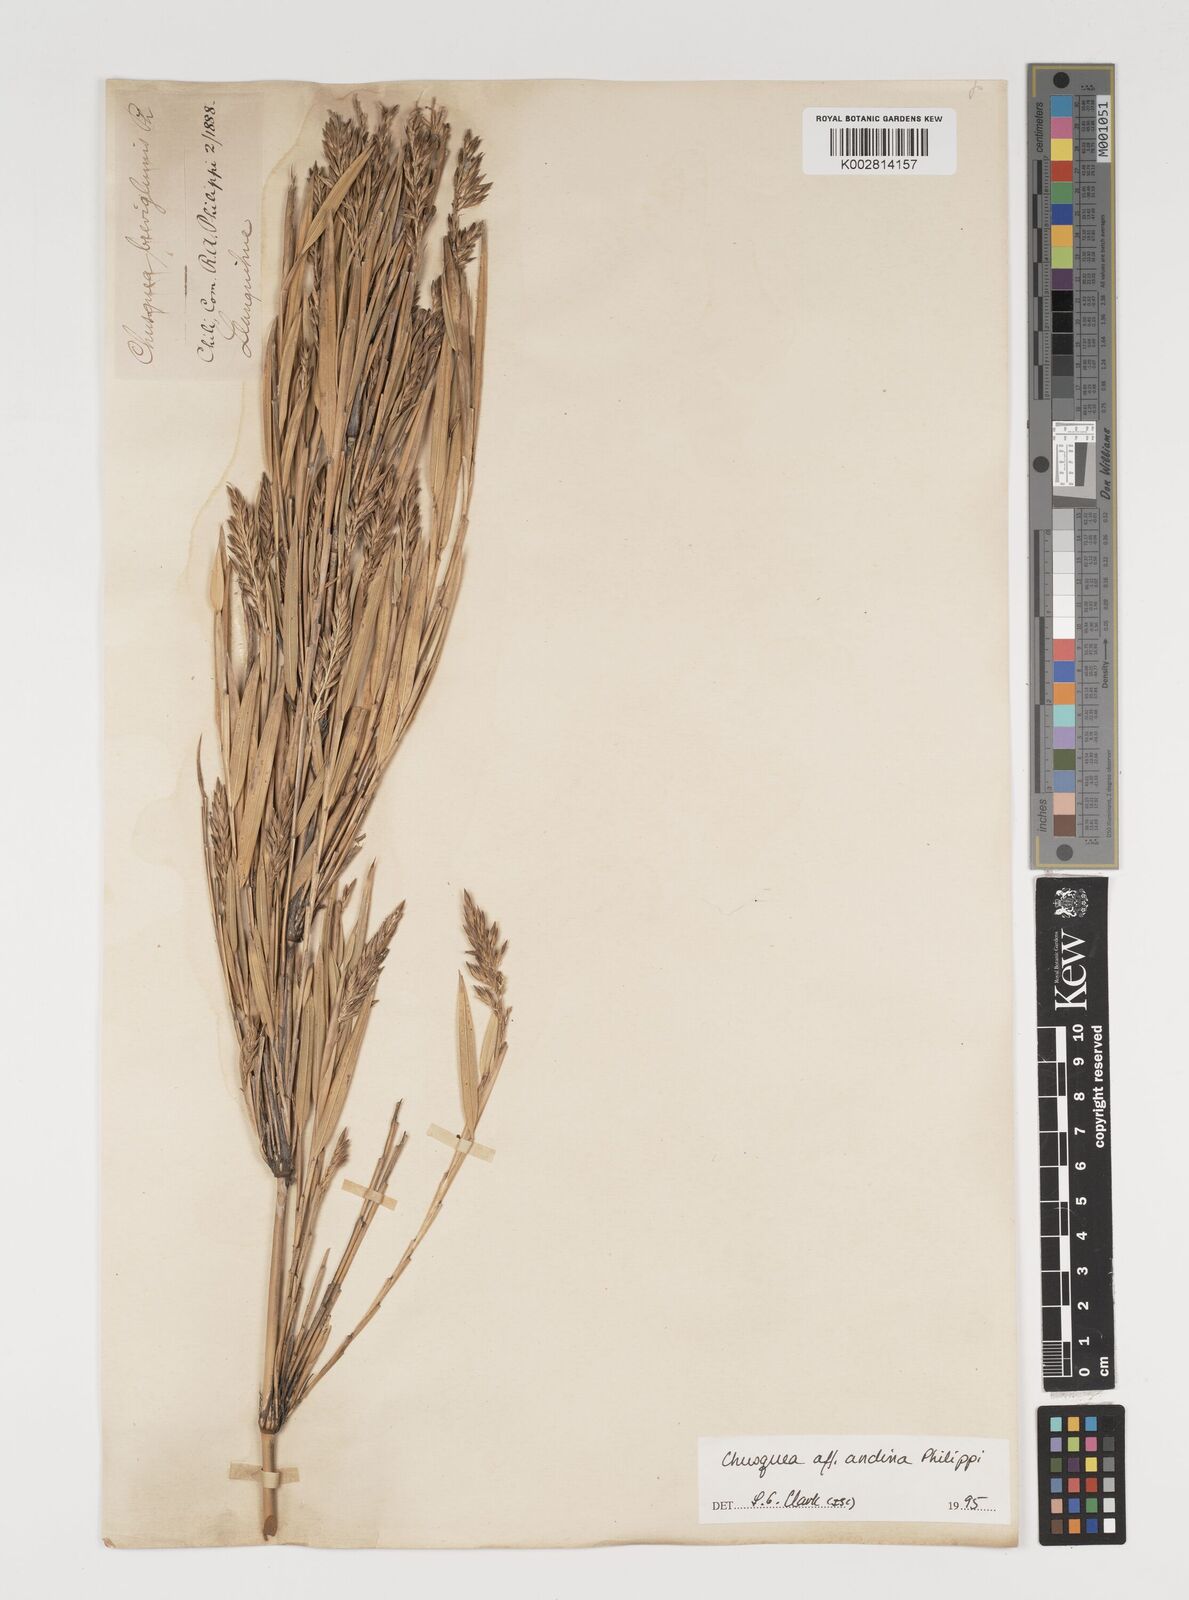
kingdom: Plantae
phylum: Tracheophyta
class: Liliopsida
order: Poales
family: Poaceae
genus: Chusquea
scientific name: Chusquea andina
